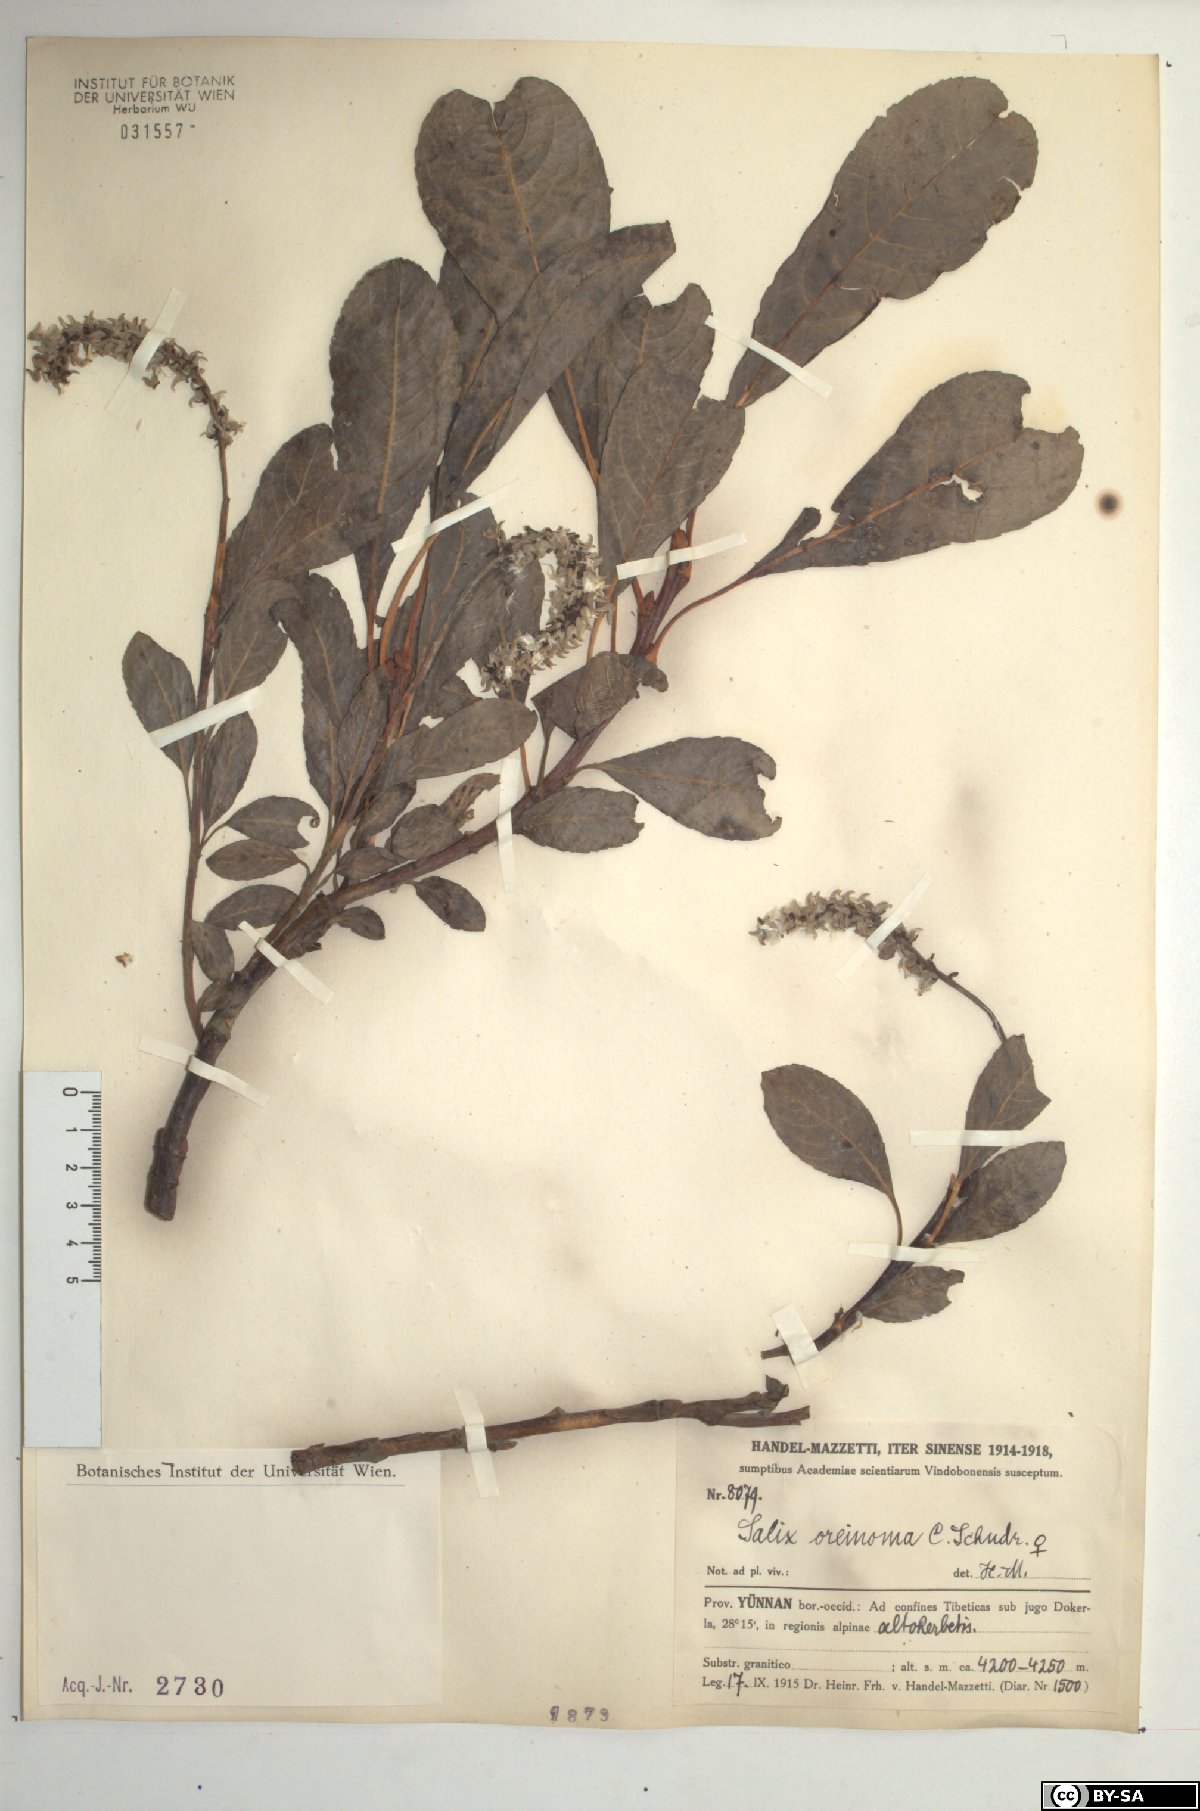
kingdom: Plantae
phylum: Tracheophyta
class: Magnoliopsida
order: Malpighiales
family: Salicaceae
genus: Salix
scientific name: Salix oreinoma
